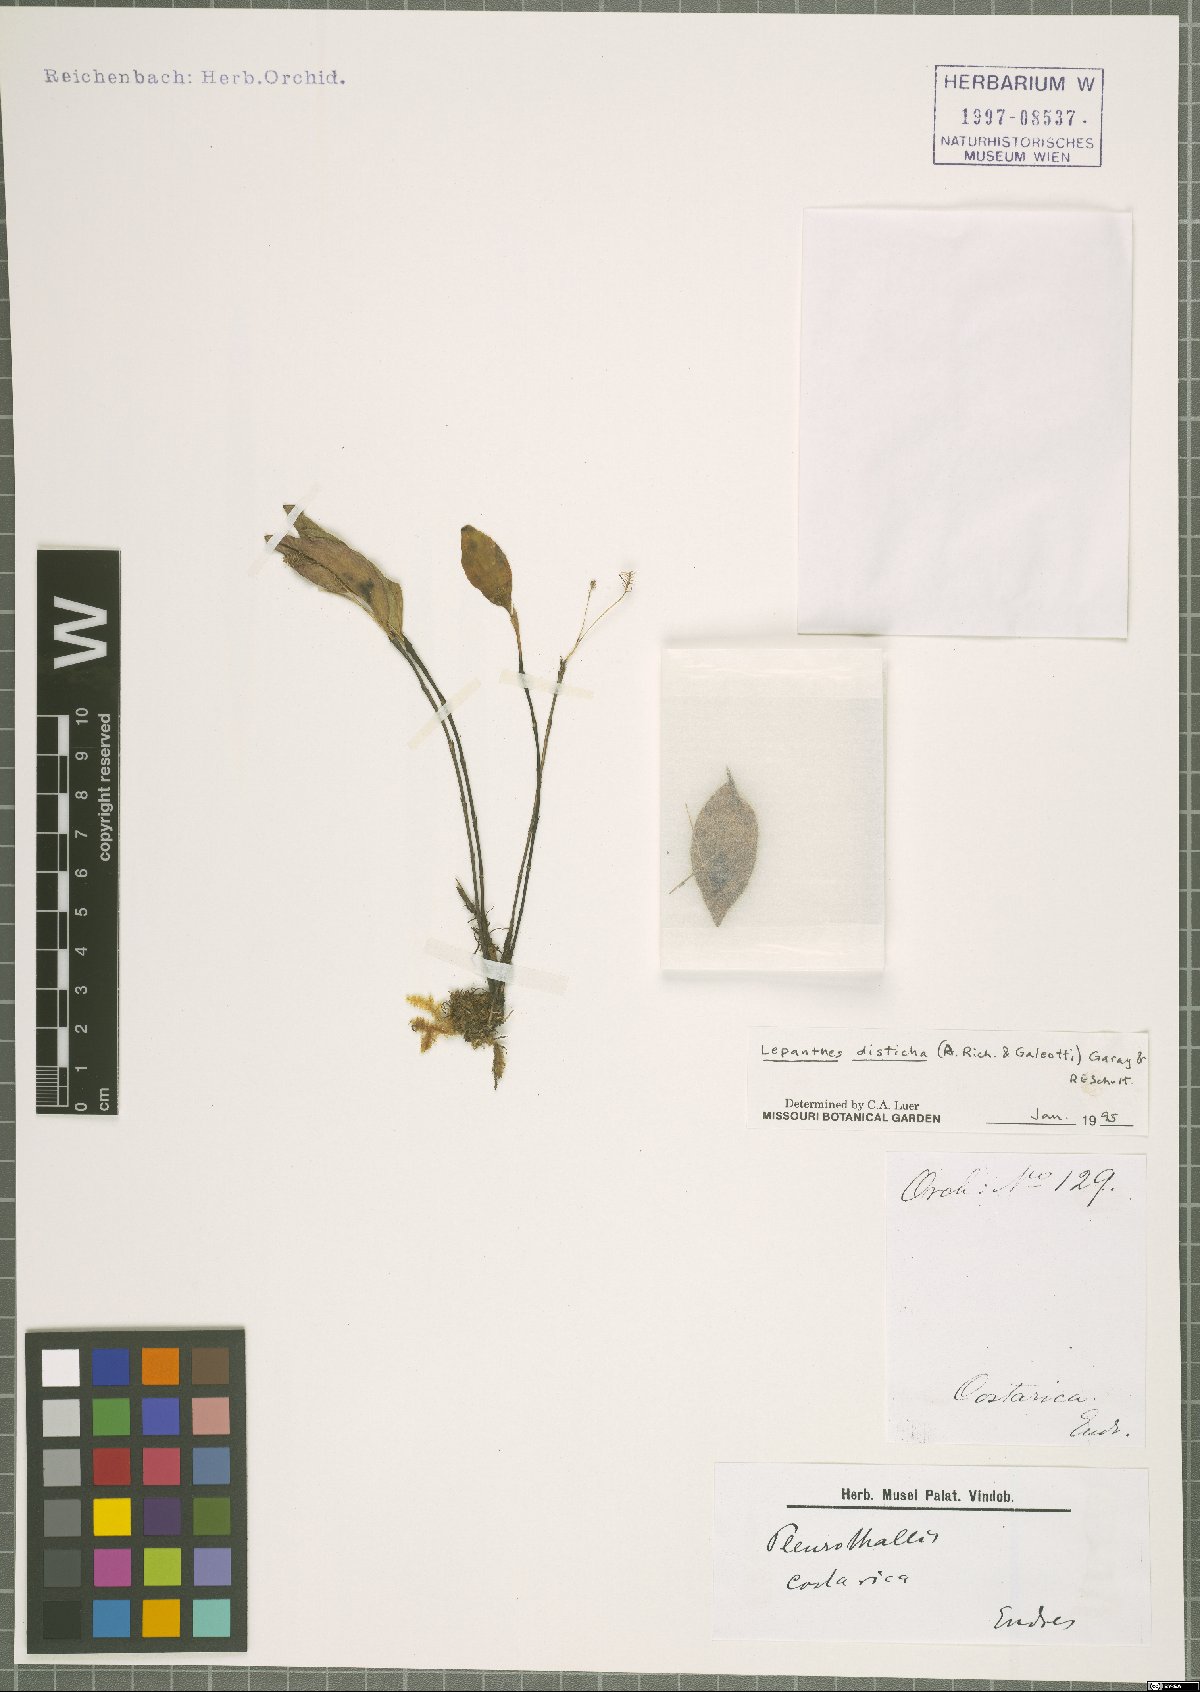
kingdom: Plantae
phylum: Tracheophyta
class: Liliopsida
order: Asparagales
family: Orchidaceae
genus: Lepanthes
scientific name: Lepanthes disticha
